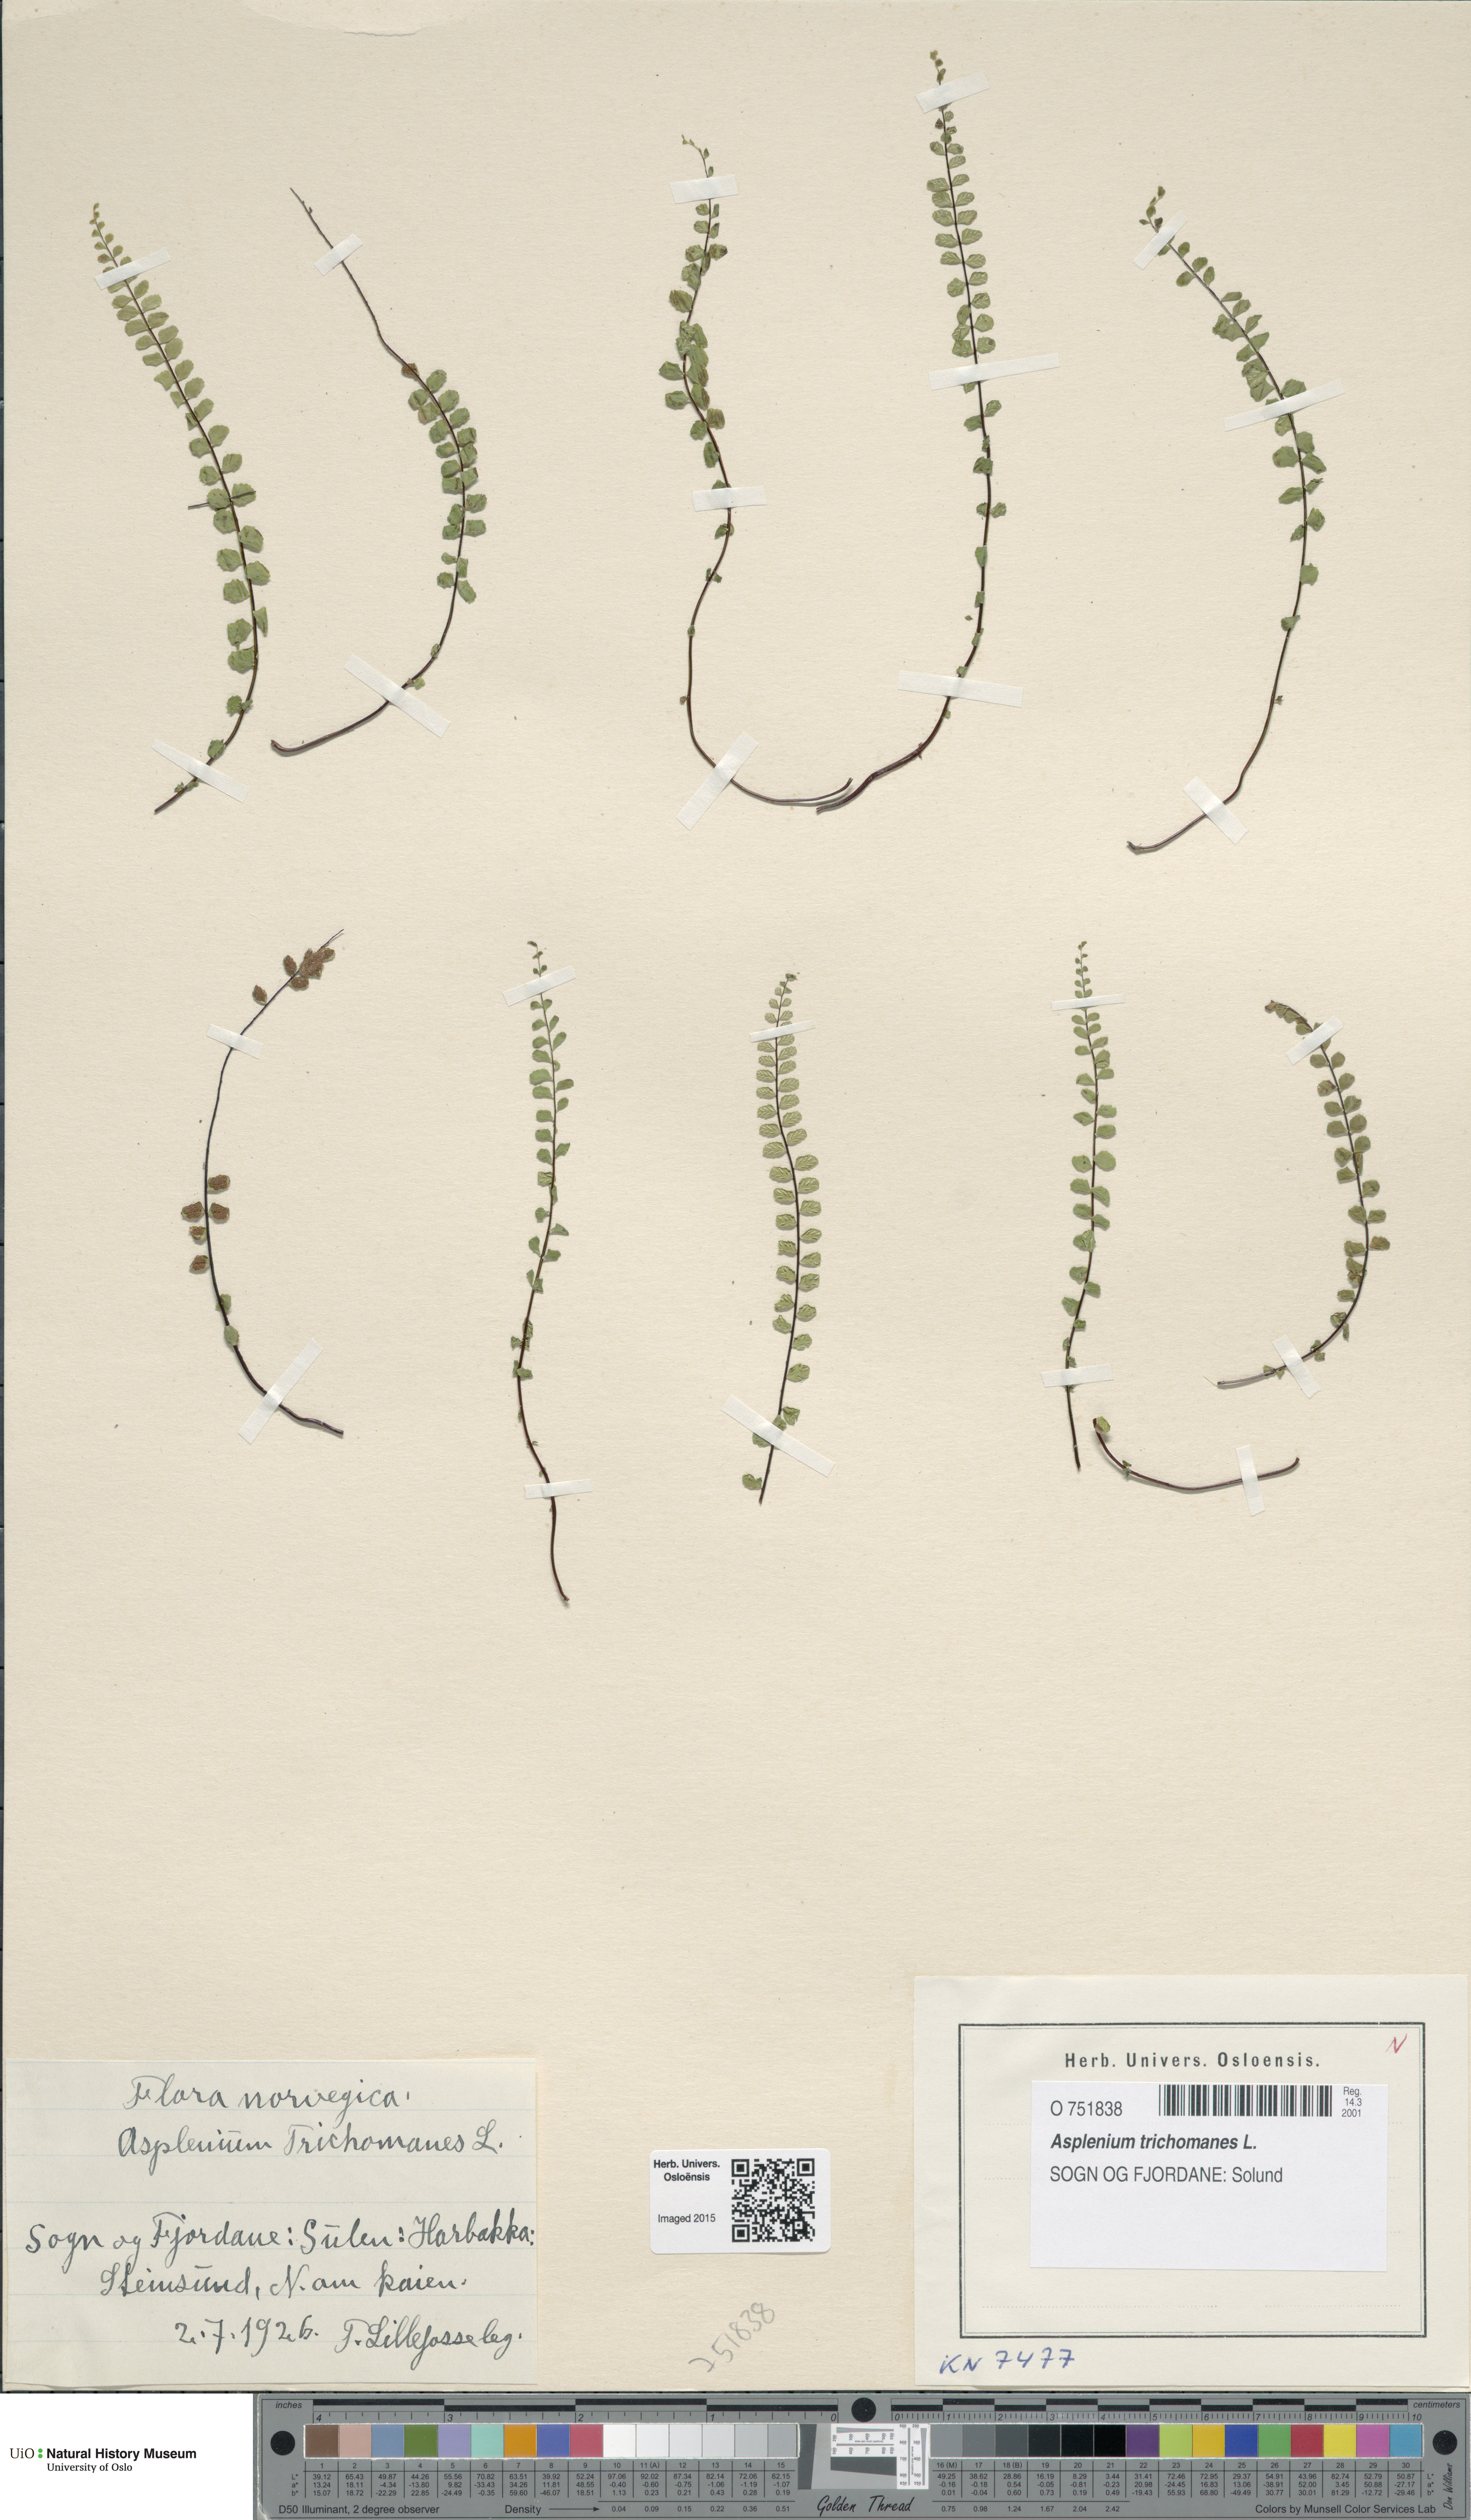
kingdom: Plantae
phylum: Tracheophyta
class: Polypodiopsida
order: Polypodiales
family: Aspleniaceae
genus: Asplenium
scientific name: Asplenium trichomanes
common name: Maidenhair spleenwort
